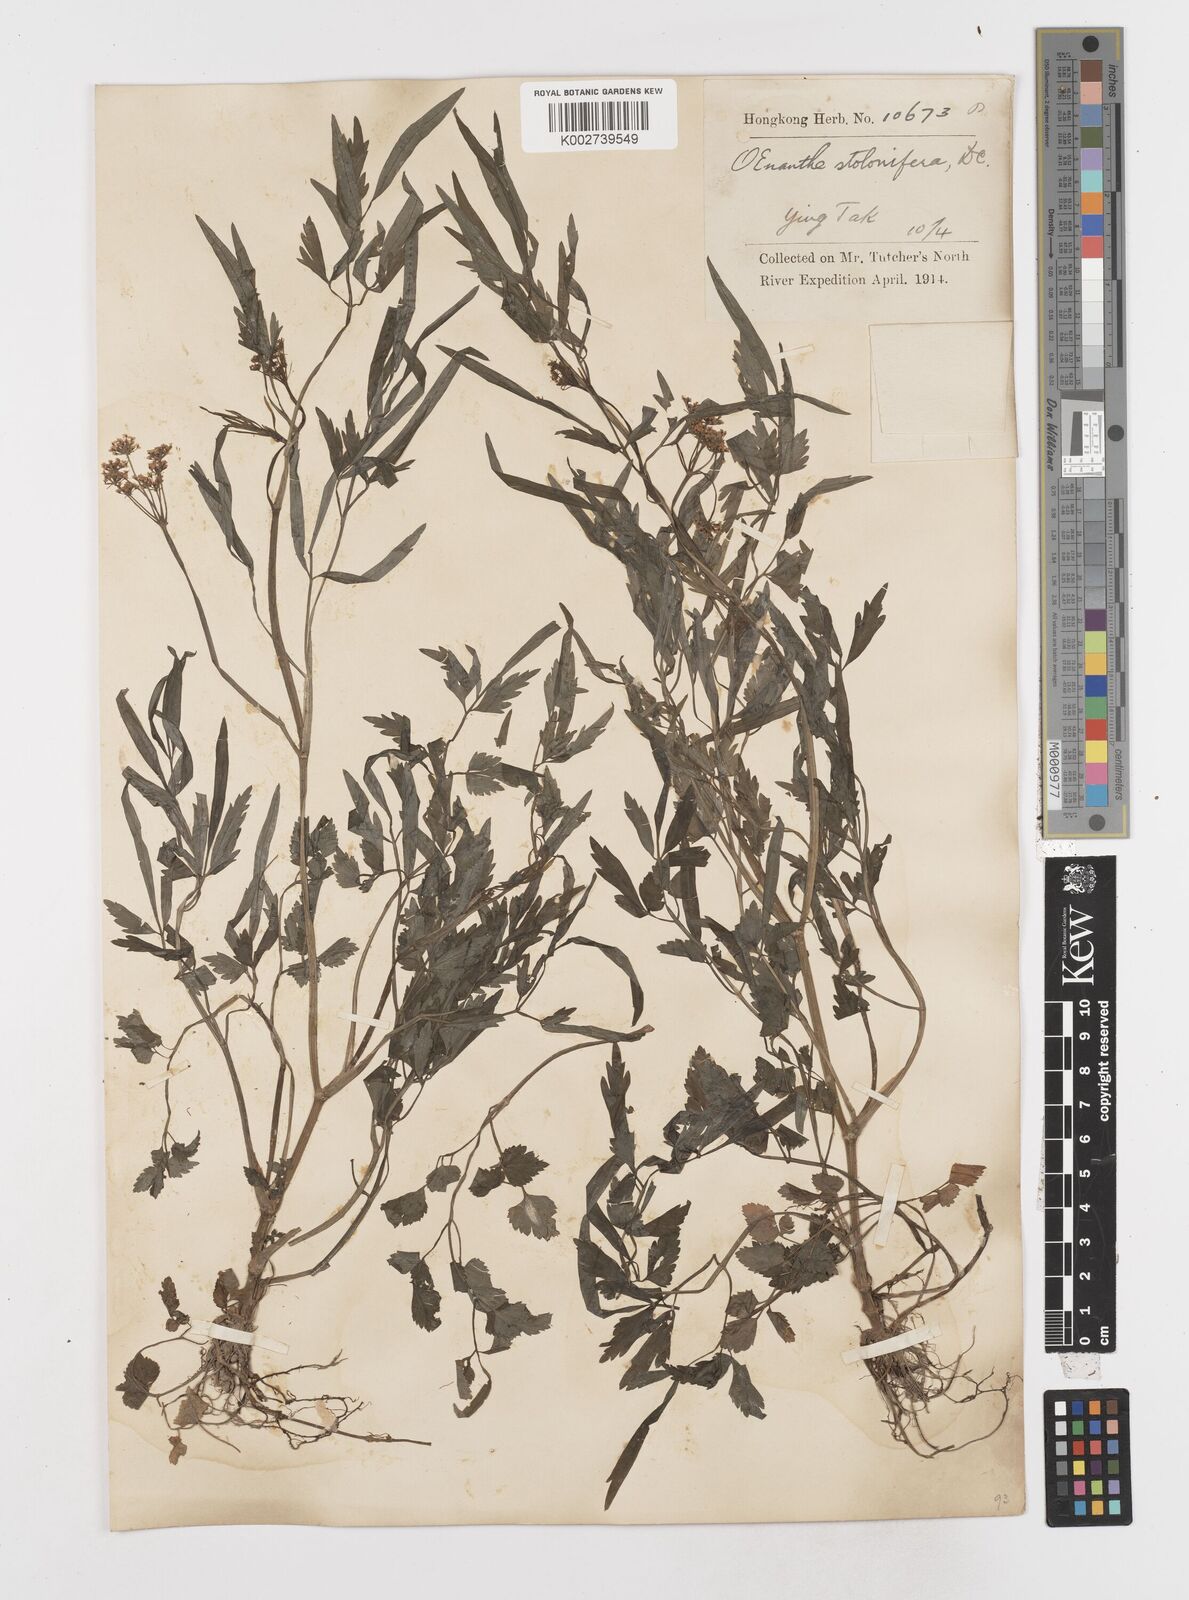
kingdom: Plantae
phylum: Tracheophyta
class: Magnoliopsida
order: Apiales
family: Apiaceae
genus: Oenanthe
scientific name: Oenanthe javanica
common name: Java water-dropwort
